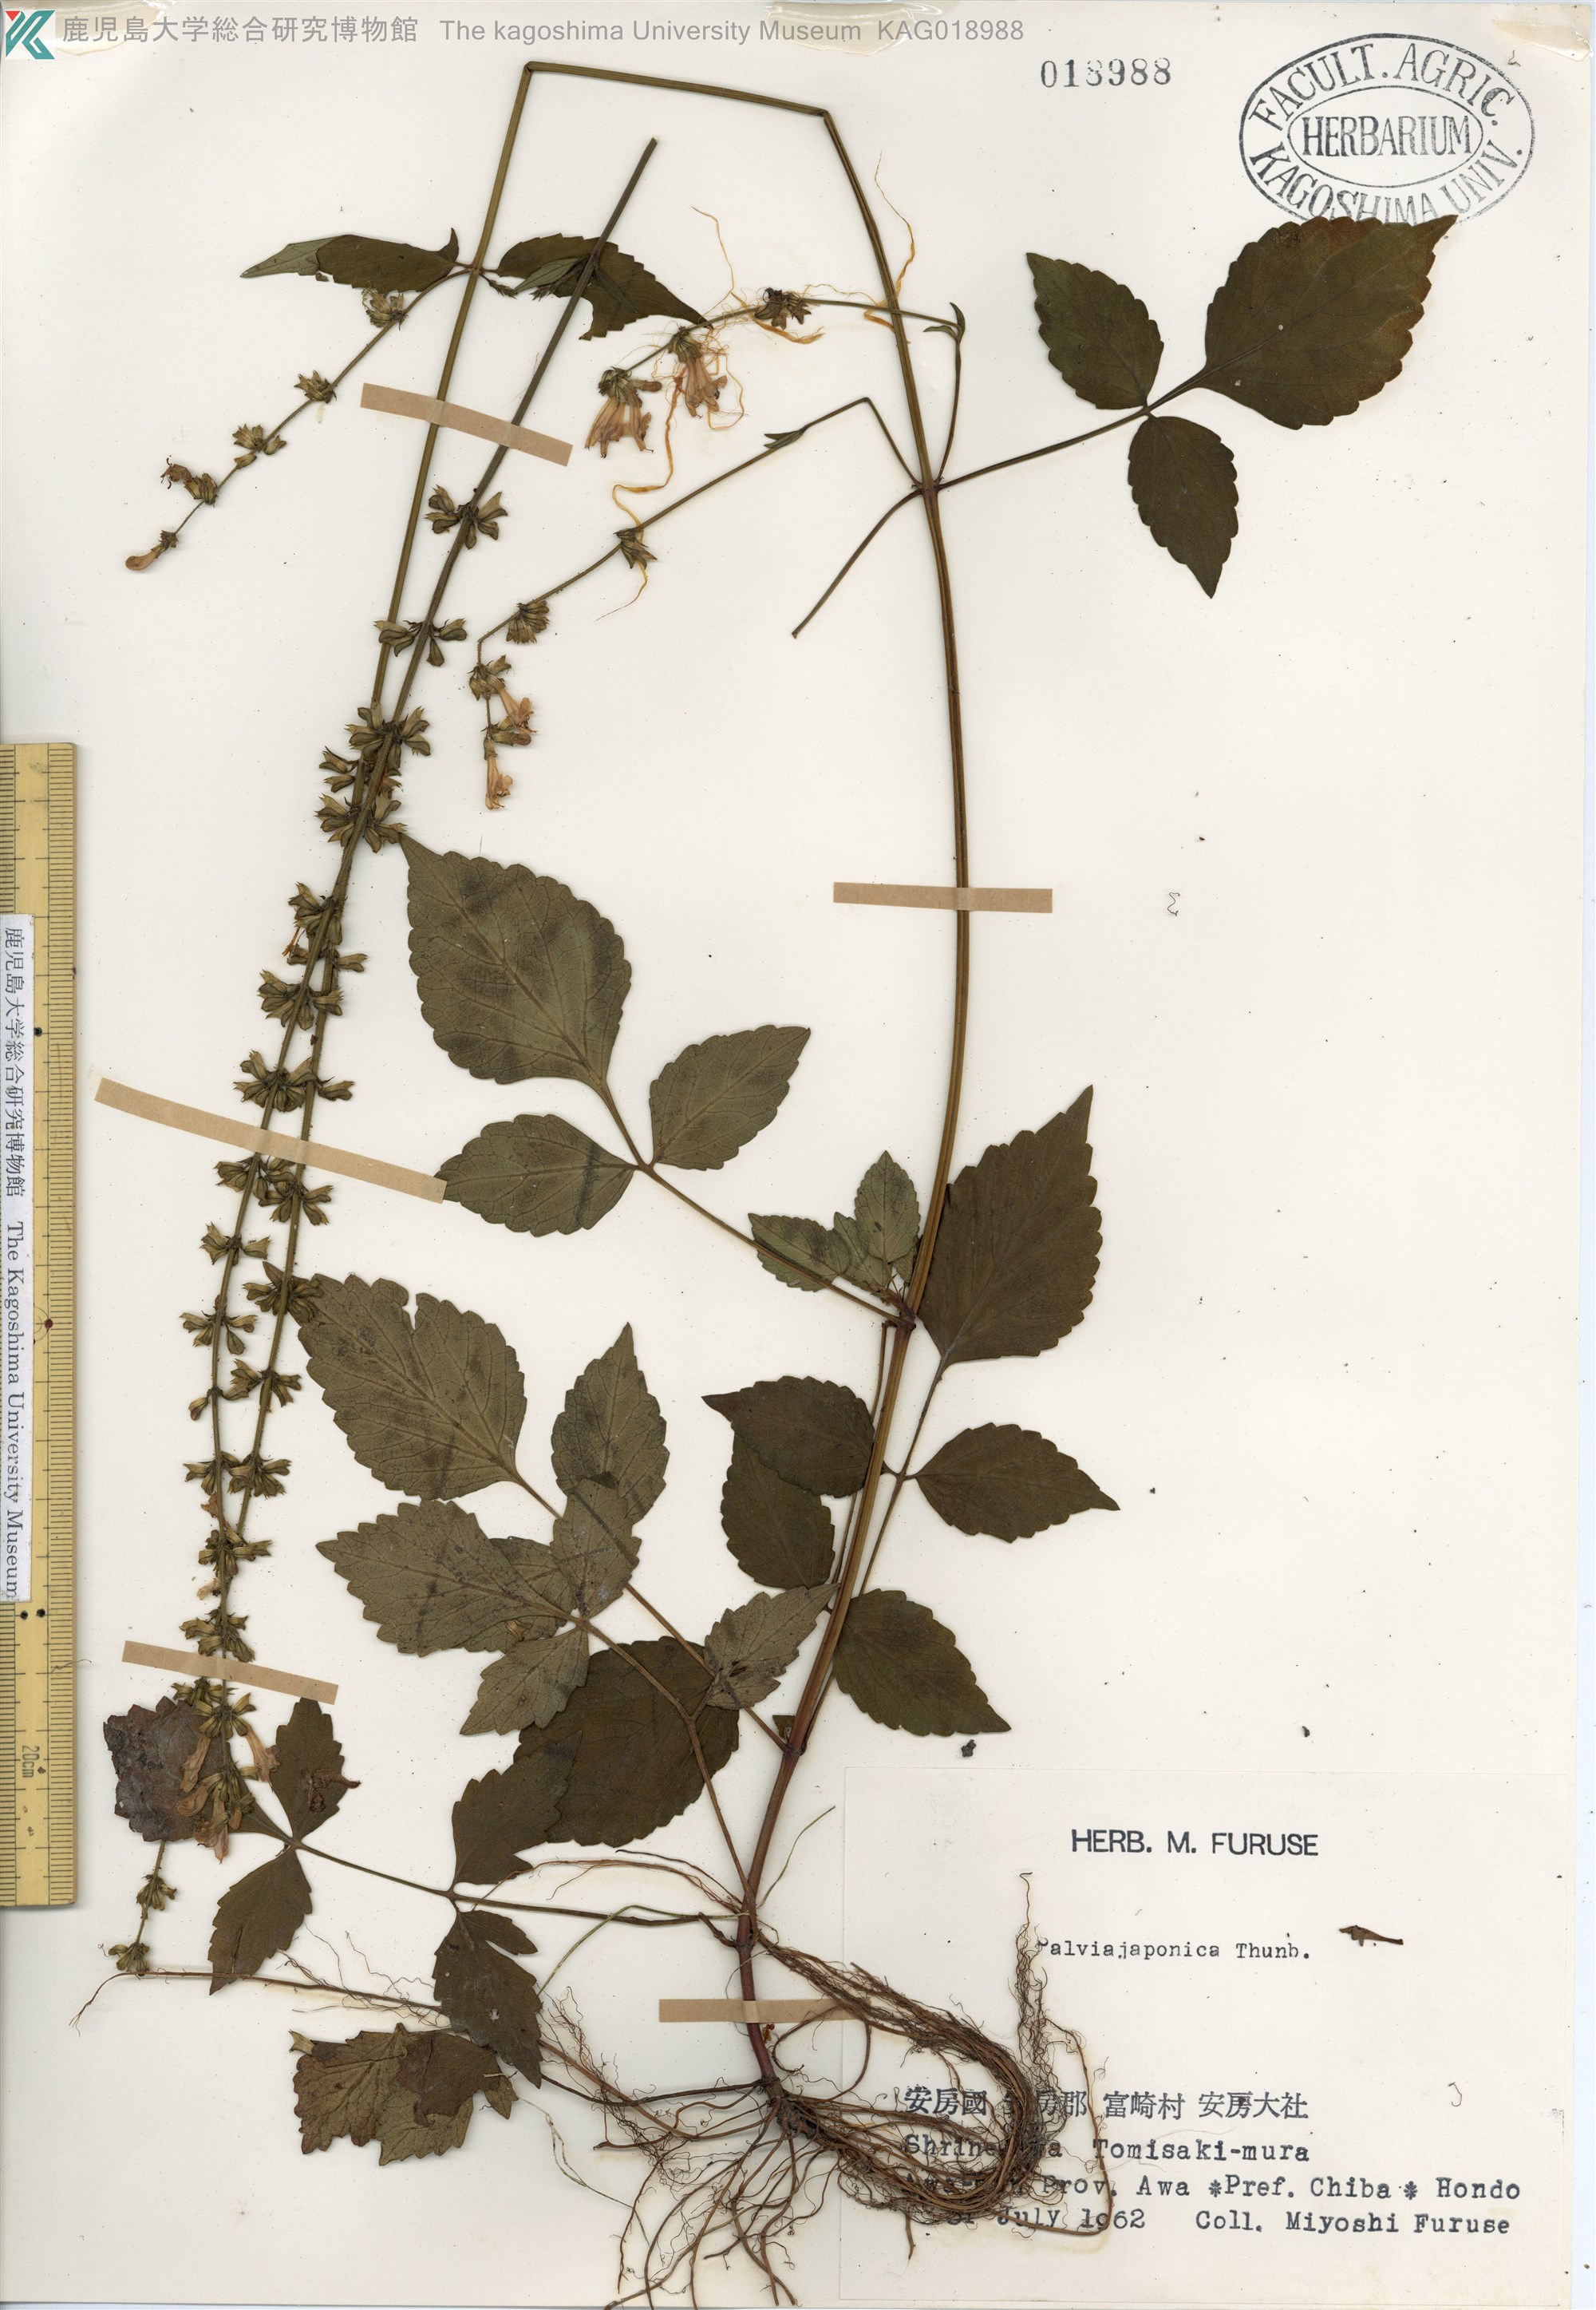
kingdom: Plantae
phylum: Tracheophyta
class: Magnoliopsida
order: Lamiales
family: Lamiaceae
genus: Salvia
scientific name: Salvia japonica
